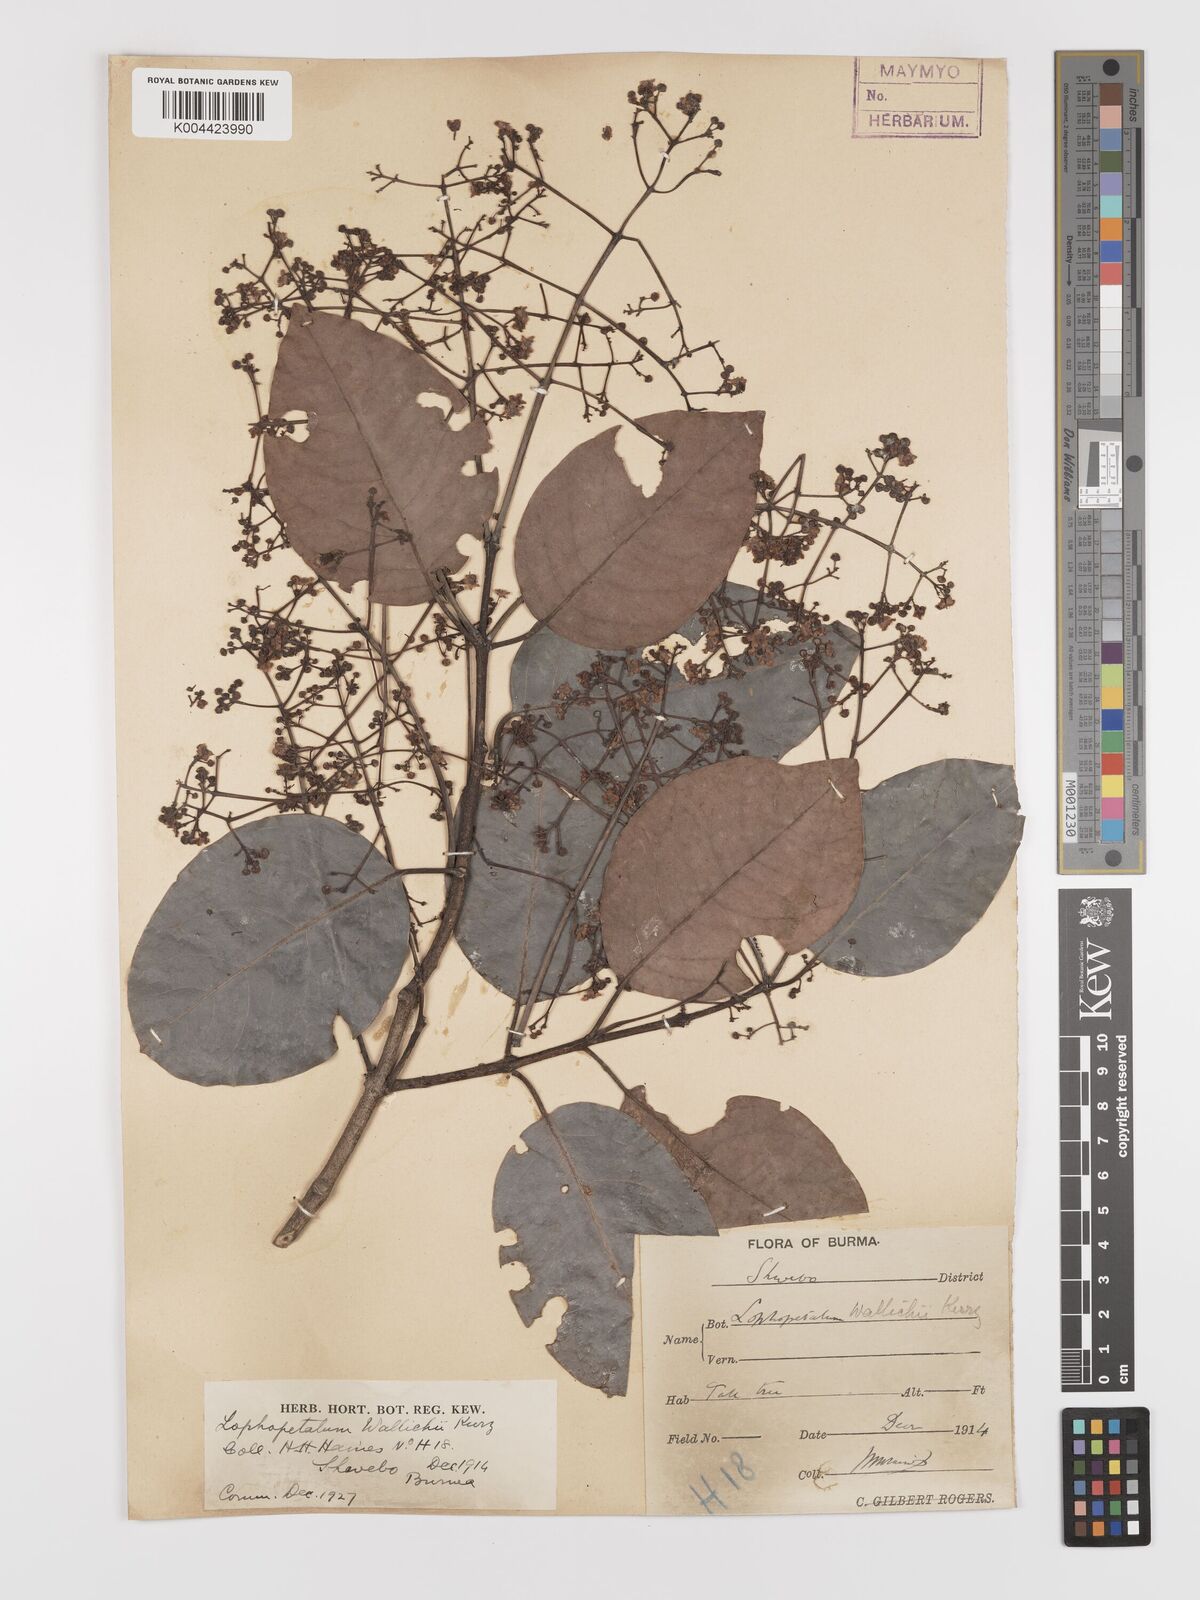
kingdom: Plantae
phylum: Tracheophyta
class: Magnoliopsida
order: Celastrales
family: Celastraceae
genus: Lophopetalum
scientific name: Lophopetalum wallichii
